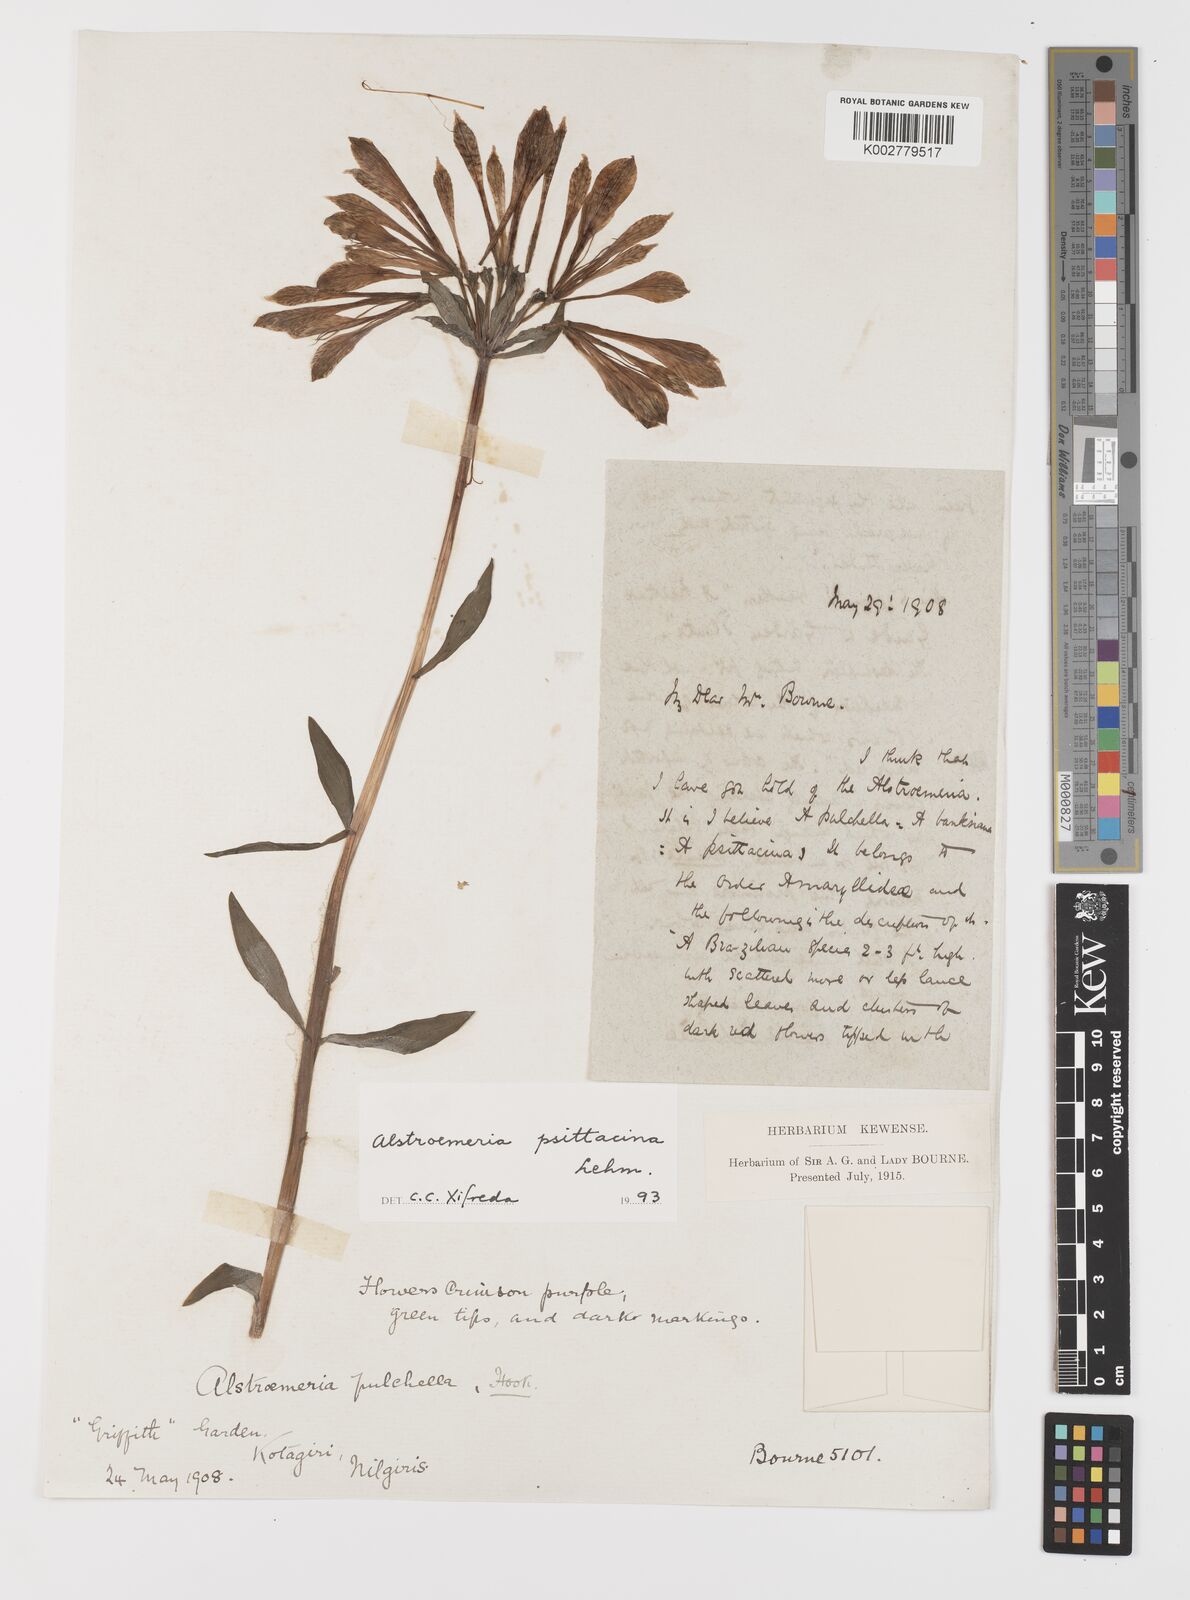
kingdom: Plantae
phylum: Tracheophyta
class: Liliopsida
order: Liliales
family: Alstroemeriaceae
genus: Alstroemeria
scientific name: Alstroemeria psittacina
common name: Peruvian-lily
